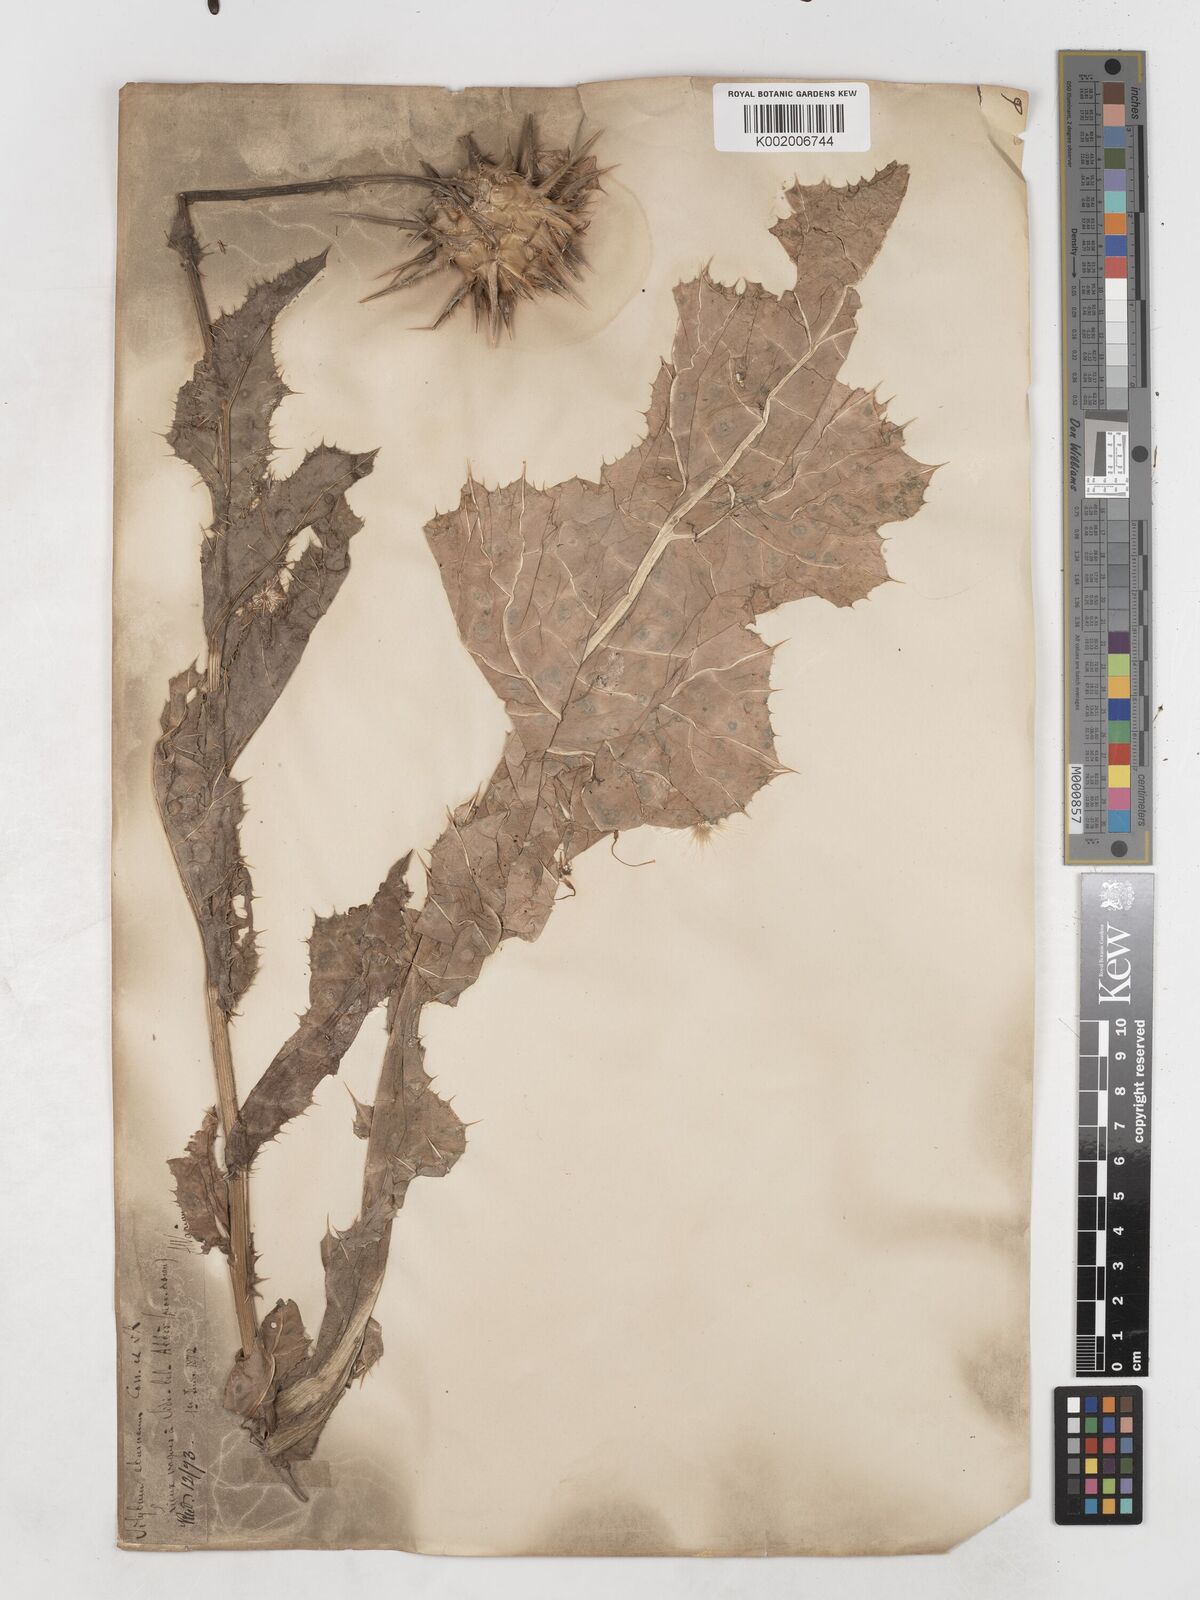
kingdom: Plantae
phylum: Tracheophyta
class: Magnoliopsida
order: Asterales
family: Asteraceae
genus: Silybum
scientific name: Silybum eburneum
